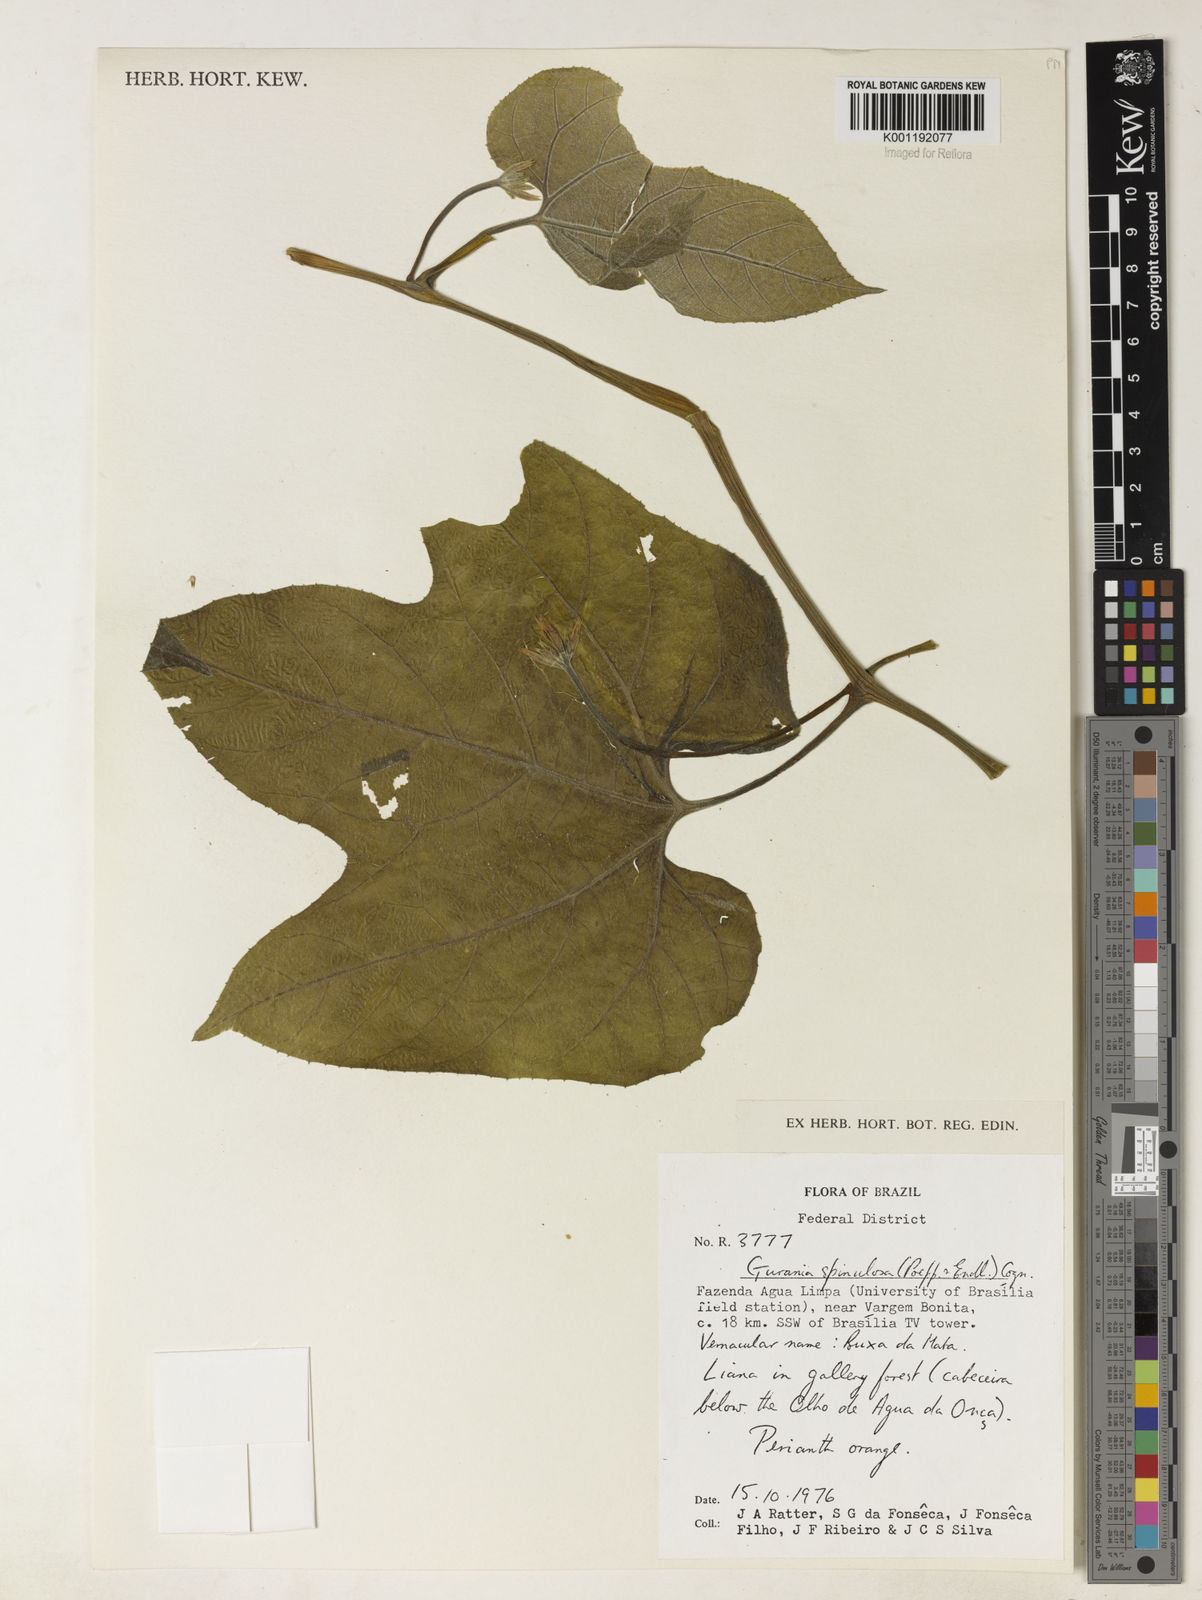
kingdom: Plantae
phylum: Tracheophyta
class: Magnoliopsida
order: Cucurbitales
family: Cucurbitaceae
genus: Gurania
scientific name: Gurania lobata
